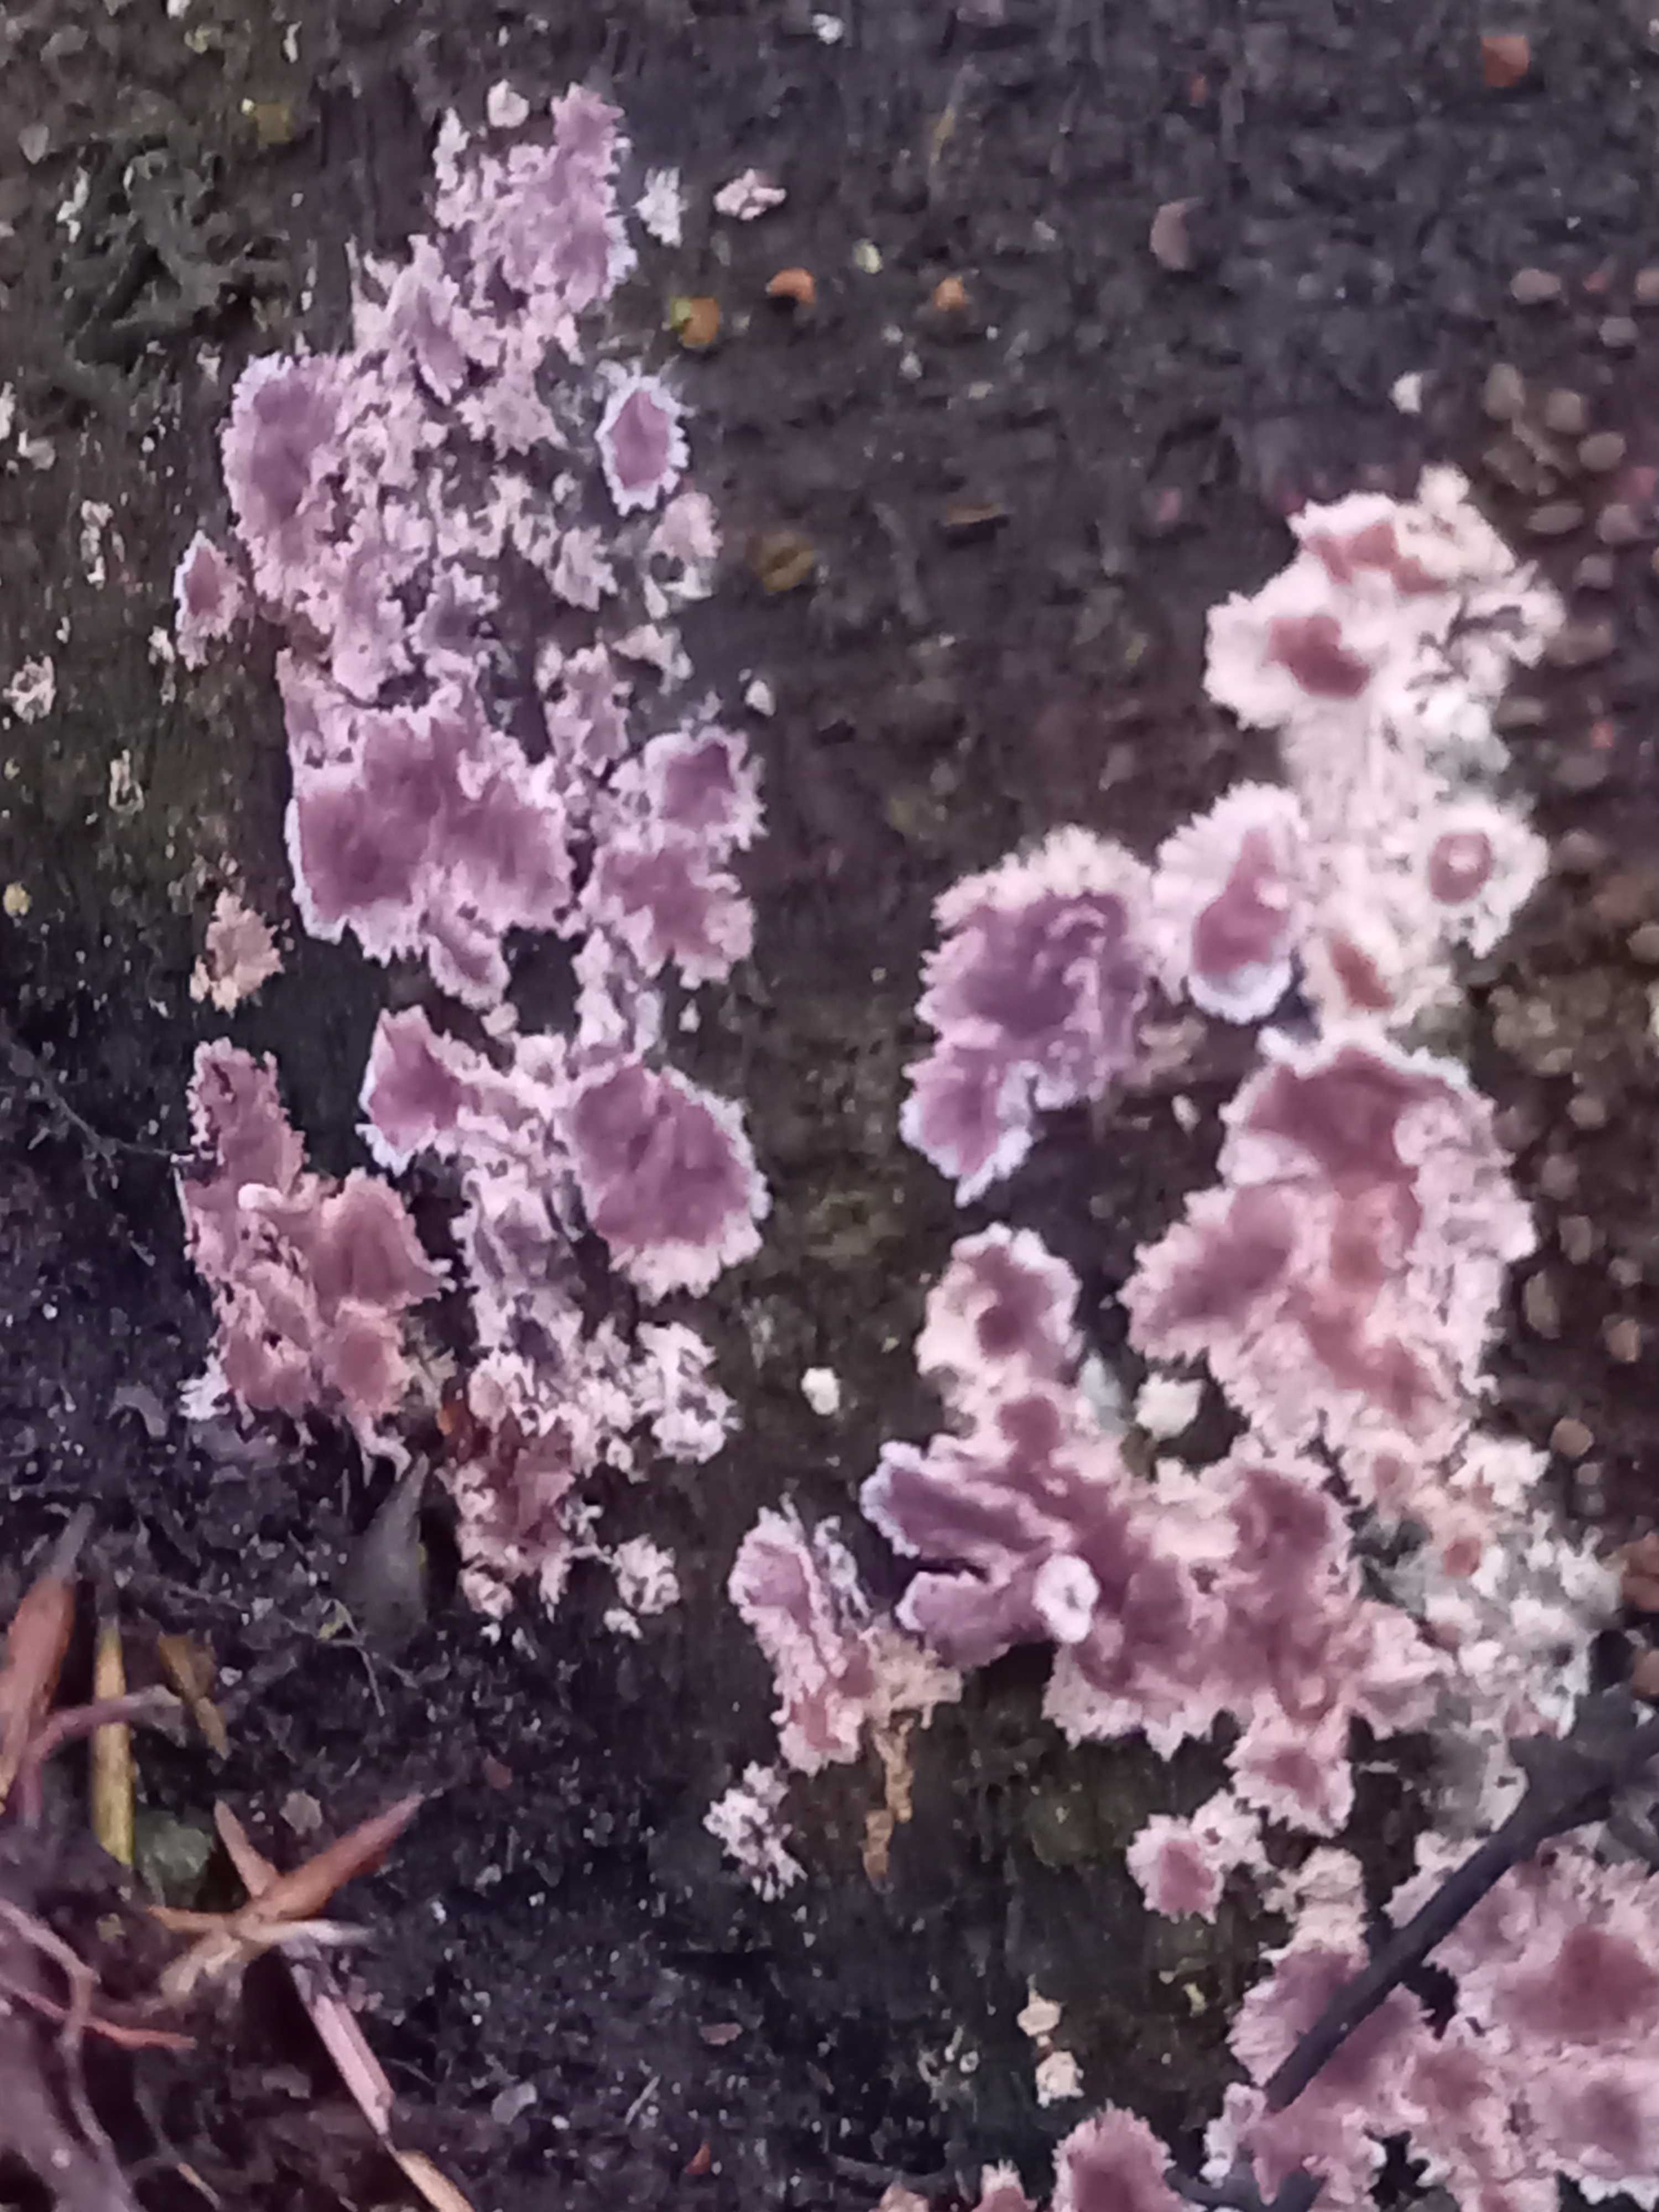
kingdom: Fungi
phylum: Basidiomycota
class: Agaricomycetes
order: Agaricales
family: Cyphellaceae
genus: Chondrostereum
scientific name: Chondrostereum purpureum
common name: purpurlædersvamp
